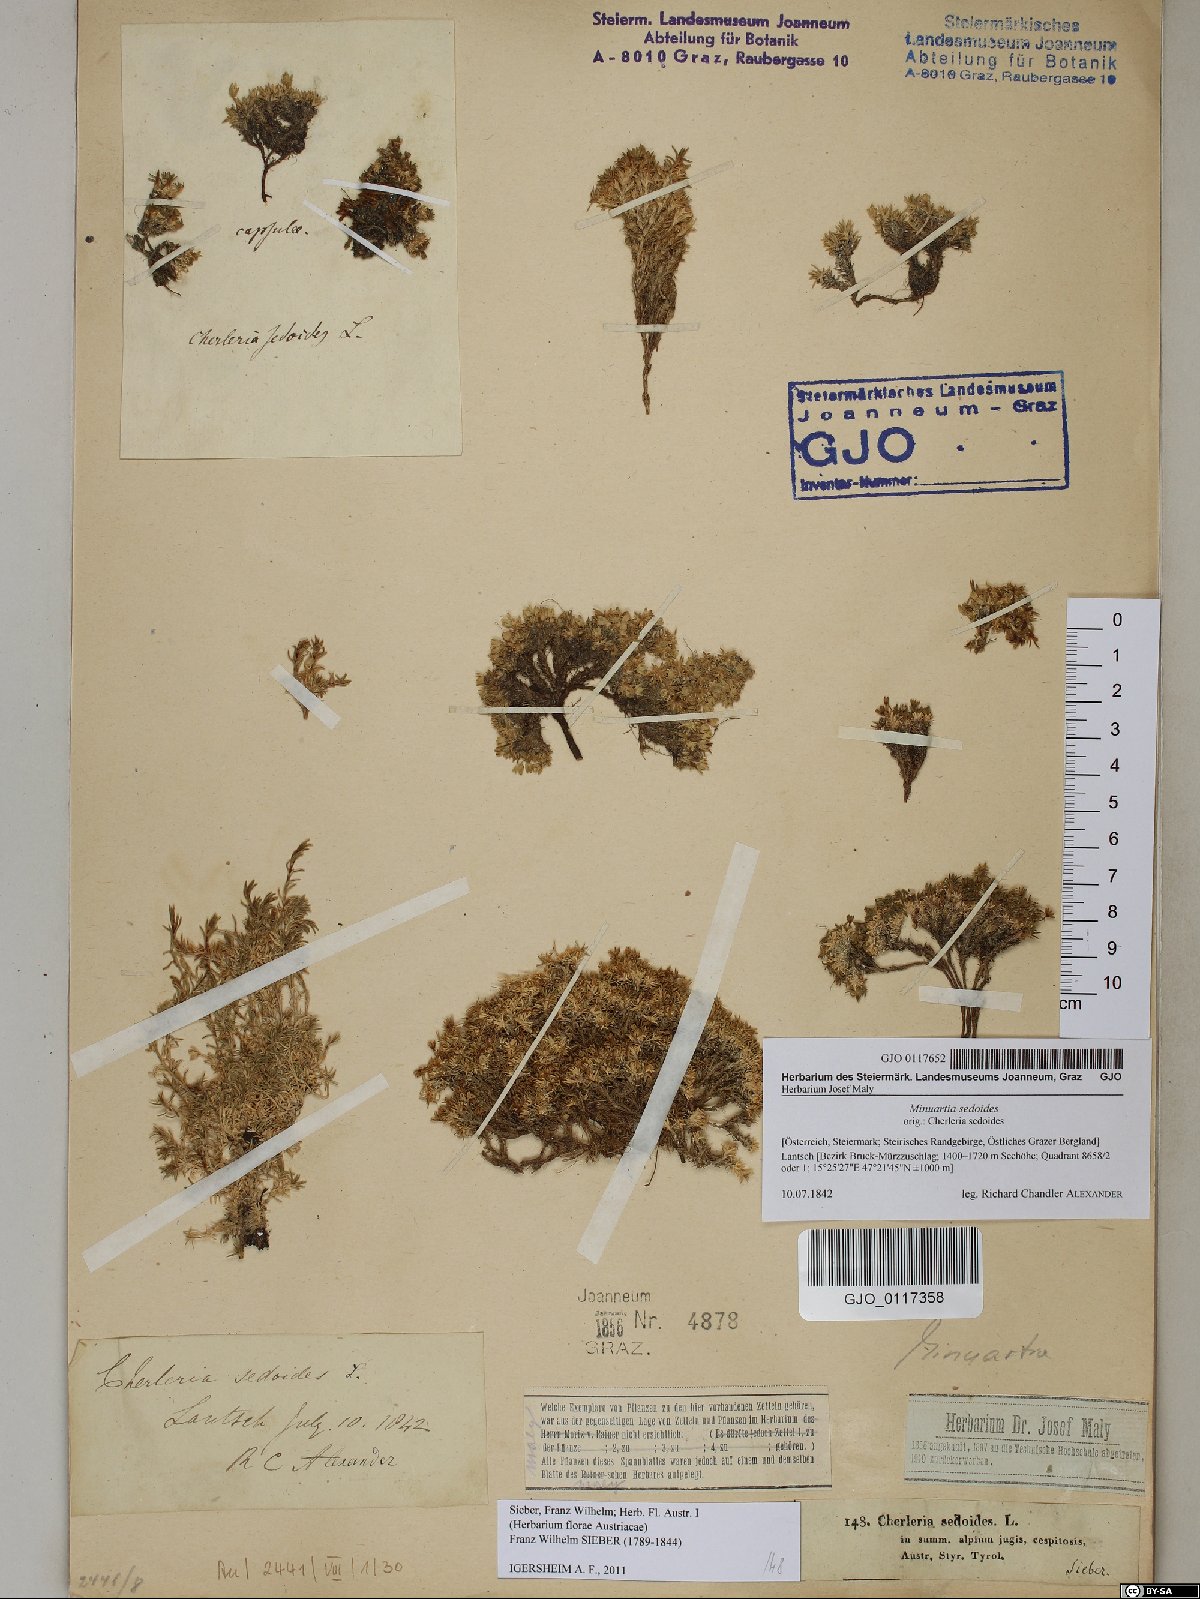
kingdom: Plantae
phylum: Tracheophyta
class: Magnoliopsida
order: Caryophyllales
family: Caryophyllaceae
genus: Cherleria
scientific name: Cherleria sedoides
